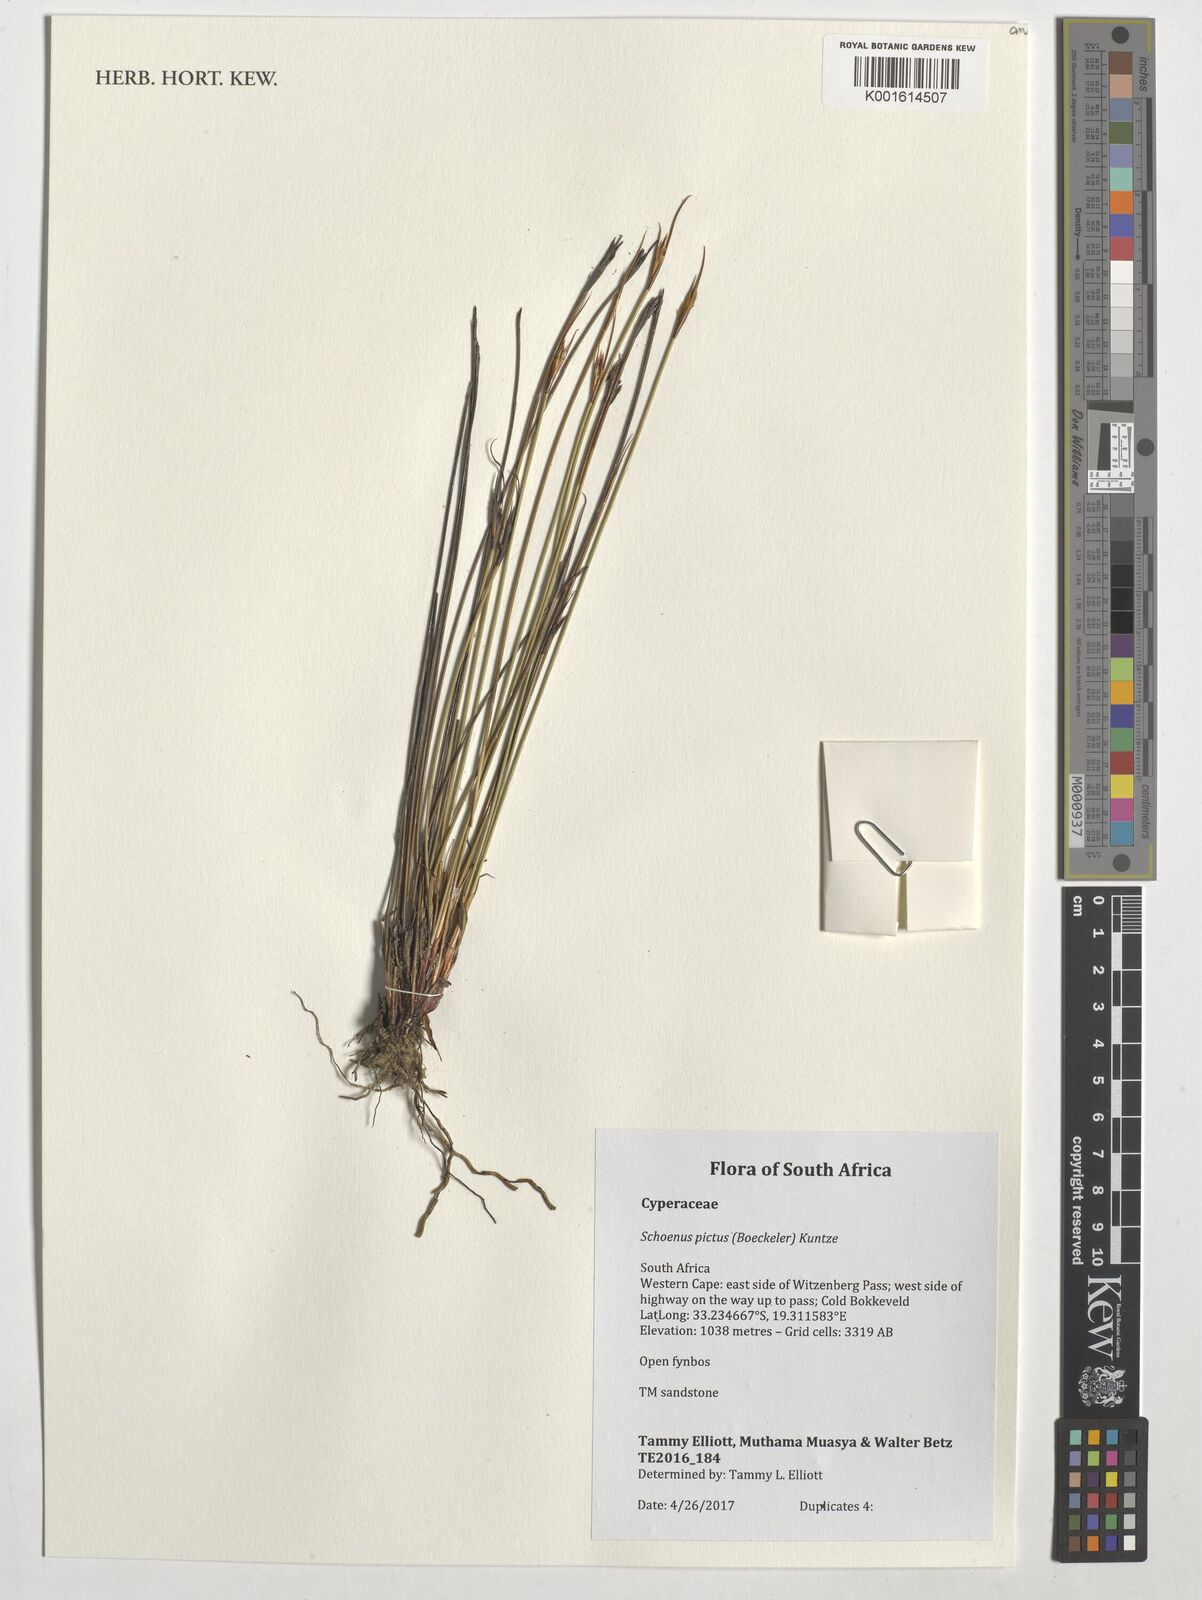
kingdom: Plantae
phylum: Tracheophyta
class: Liliopsida
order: Poales
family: Cyperaceae
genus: Schoenus
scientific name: Schoenus pictus
